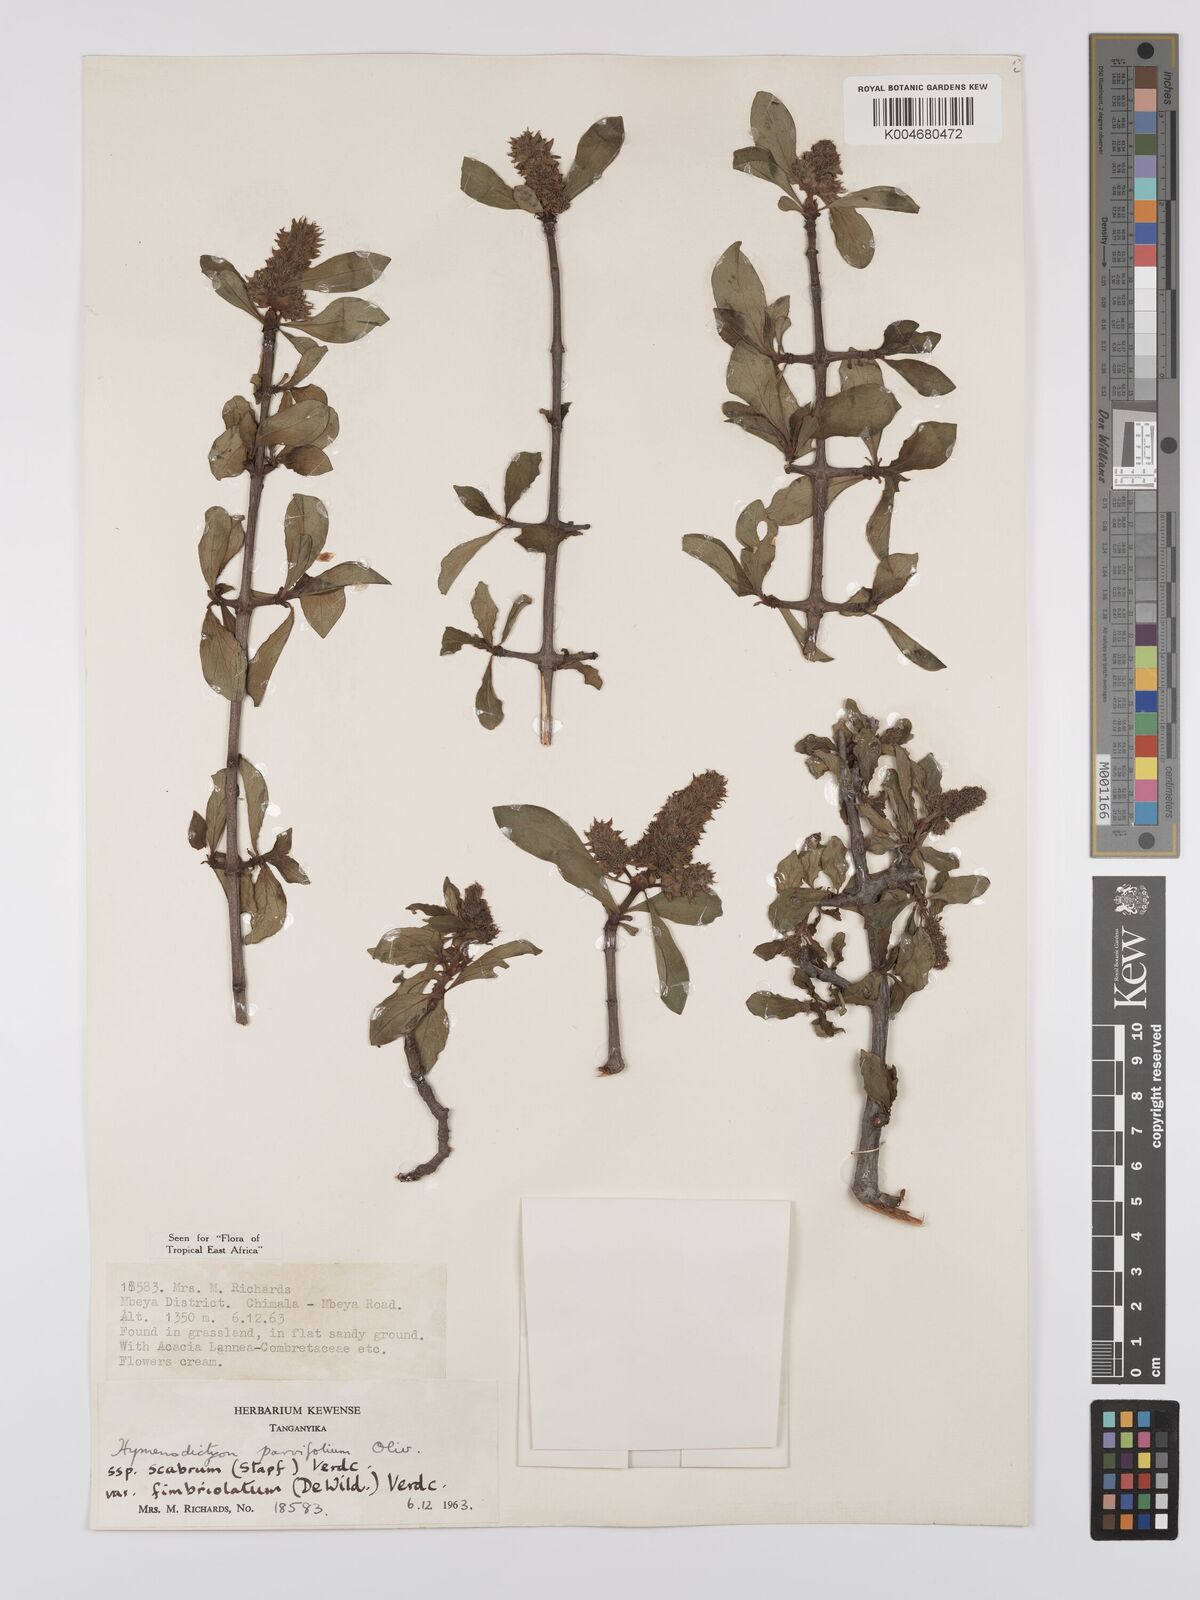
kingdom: Plantae
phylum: Tracheophyta
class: Magnoliopsida
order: Gentianales
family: Rubiaceae
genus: Hymenodictyon
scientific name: Hymenodictyon scabrum
